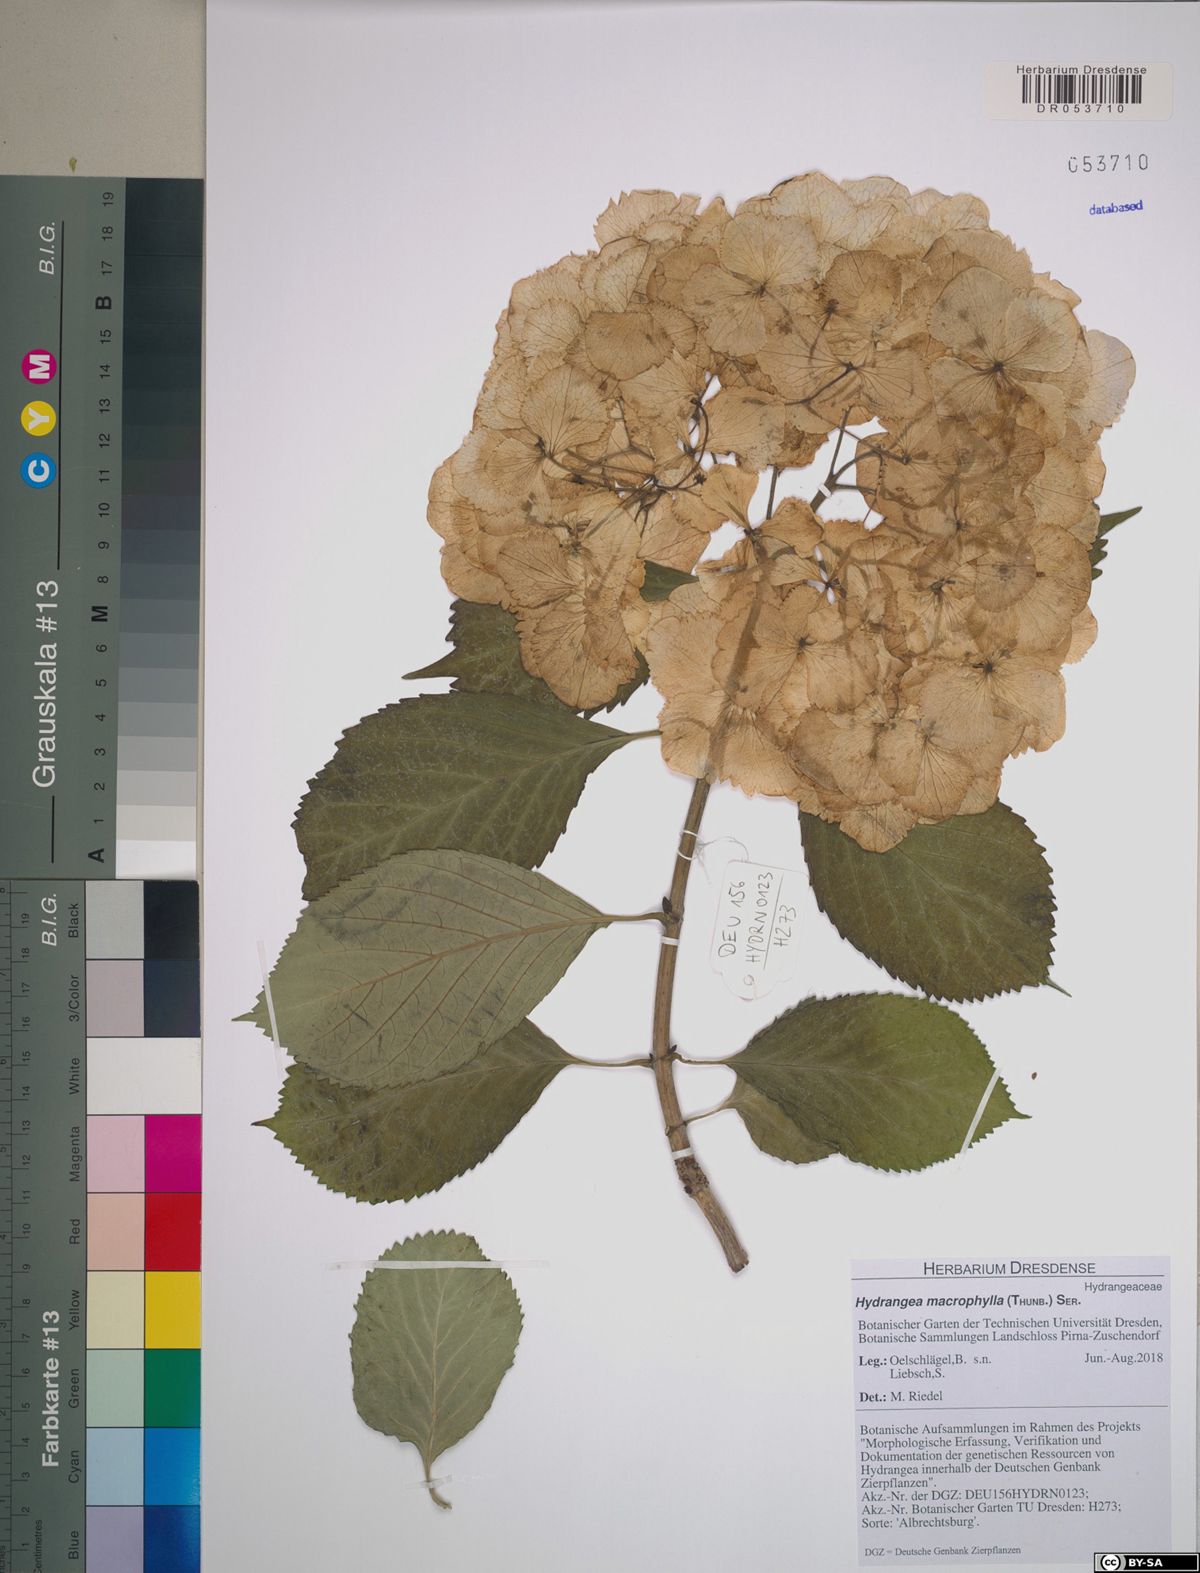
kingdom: Plantae
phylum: Tracheophyta
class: Magnoliopsida
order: Cornales
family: Hydrangeaceae
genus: Hydrangea
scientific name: Hydrangea macrophylla
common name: Hydrangea
